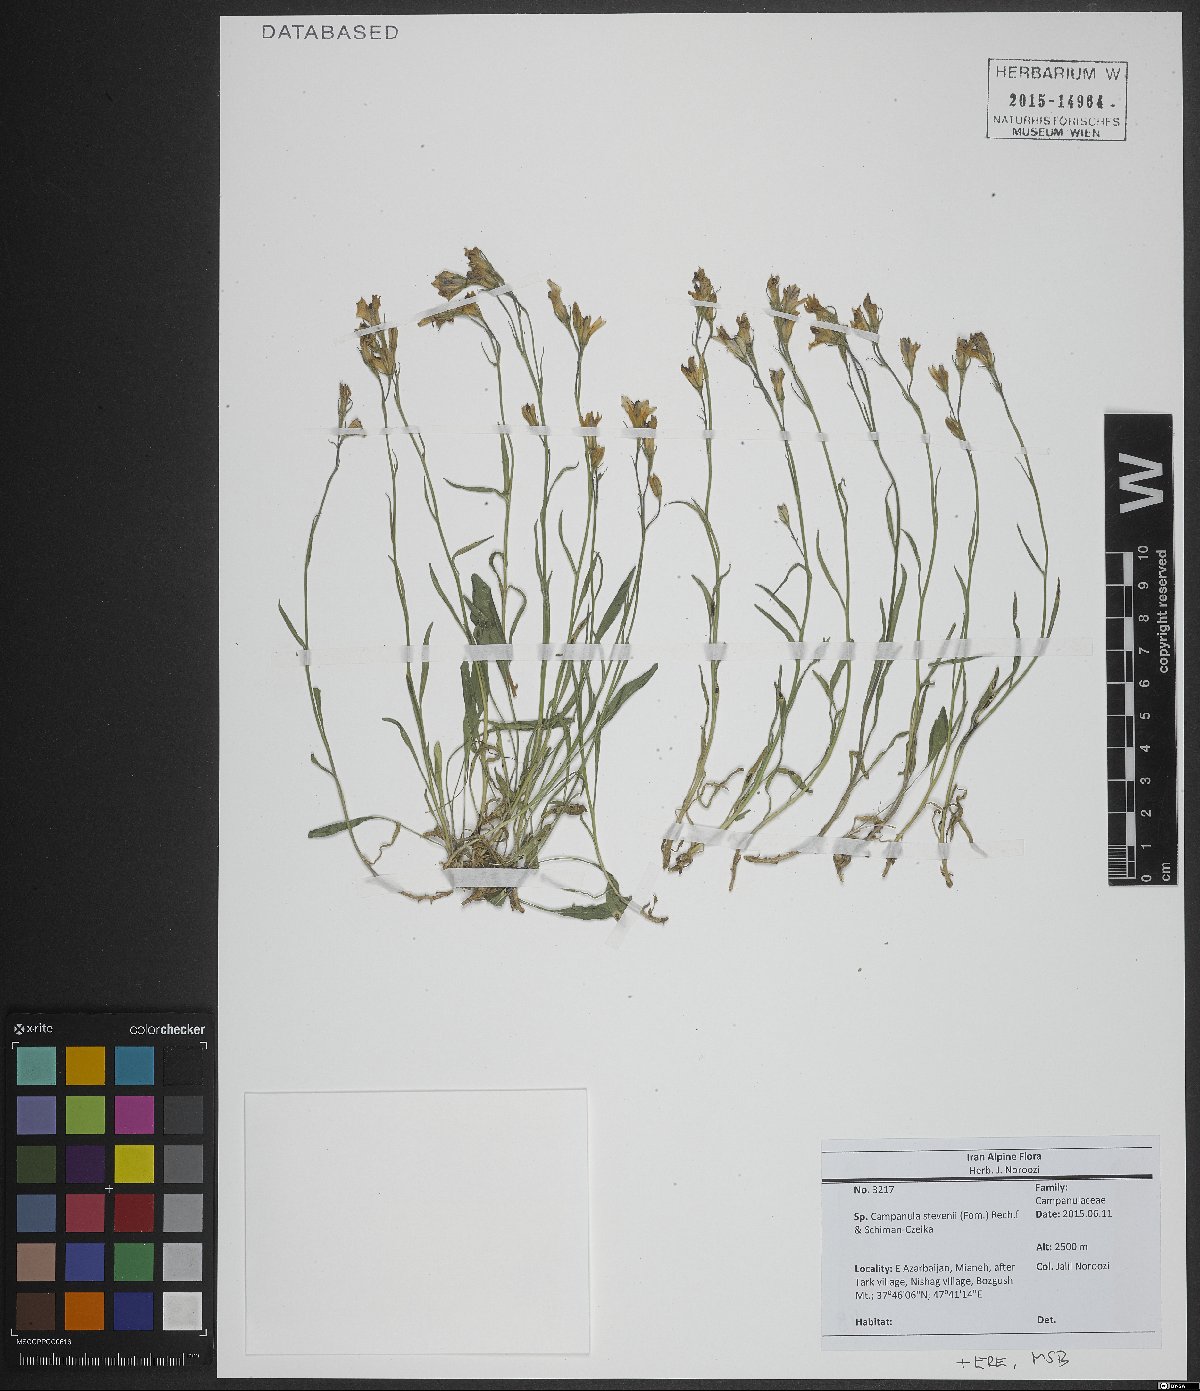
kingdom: Plantae
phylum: Tracheophyta
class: Magnoliopsida
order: Asterales
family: Campanulaceae
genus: Campanula
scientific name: Campanula stevenii
